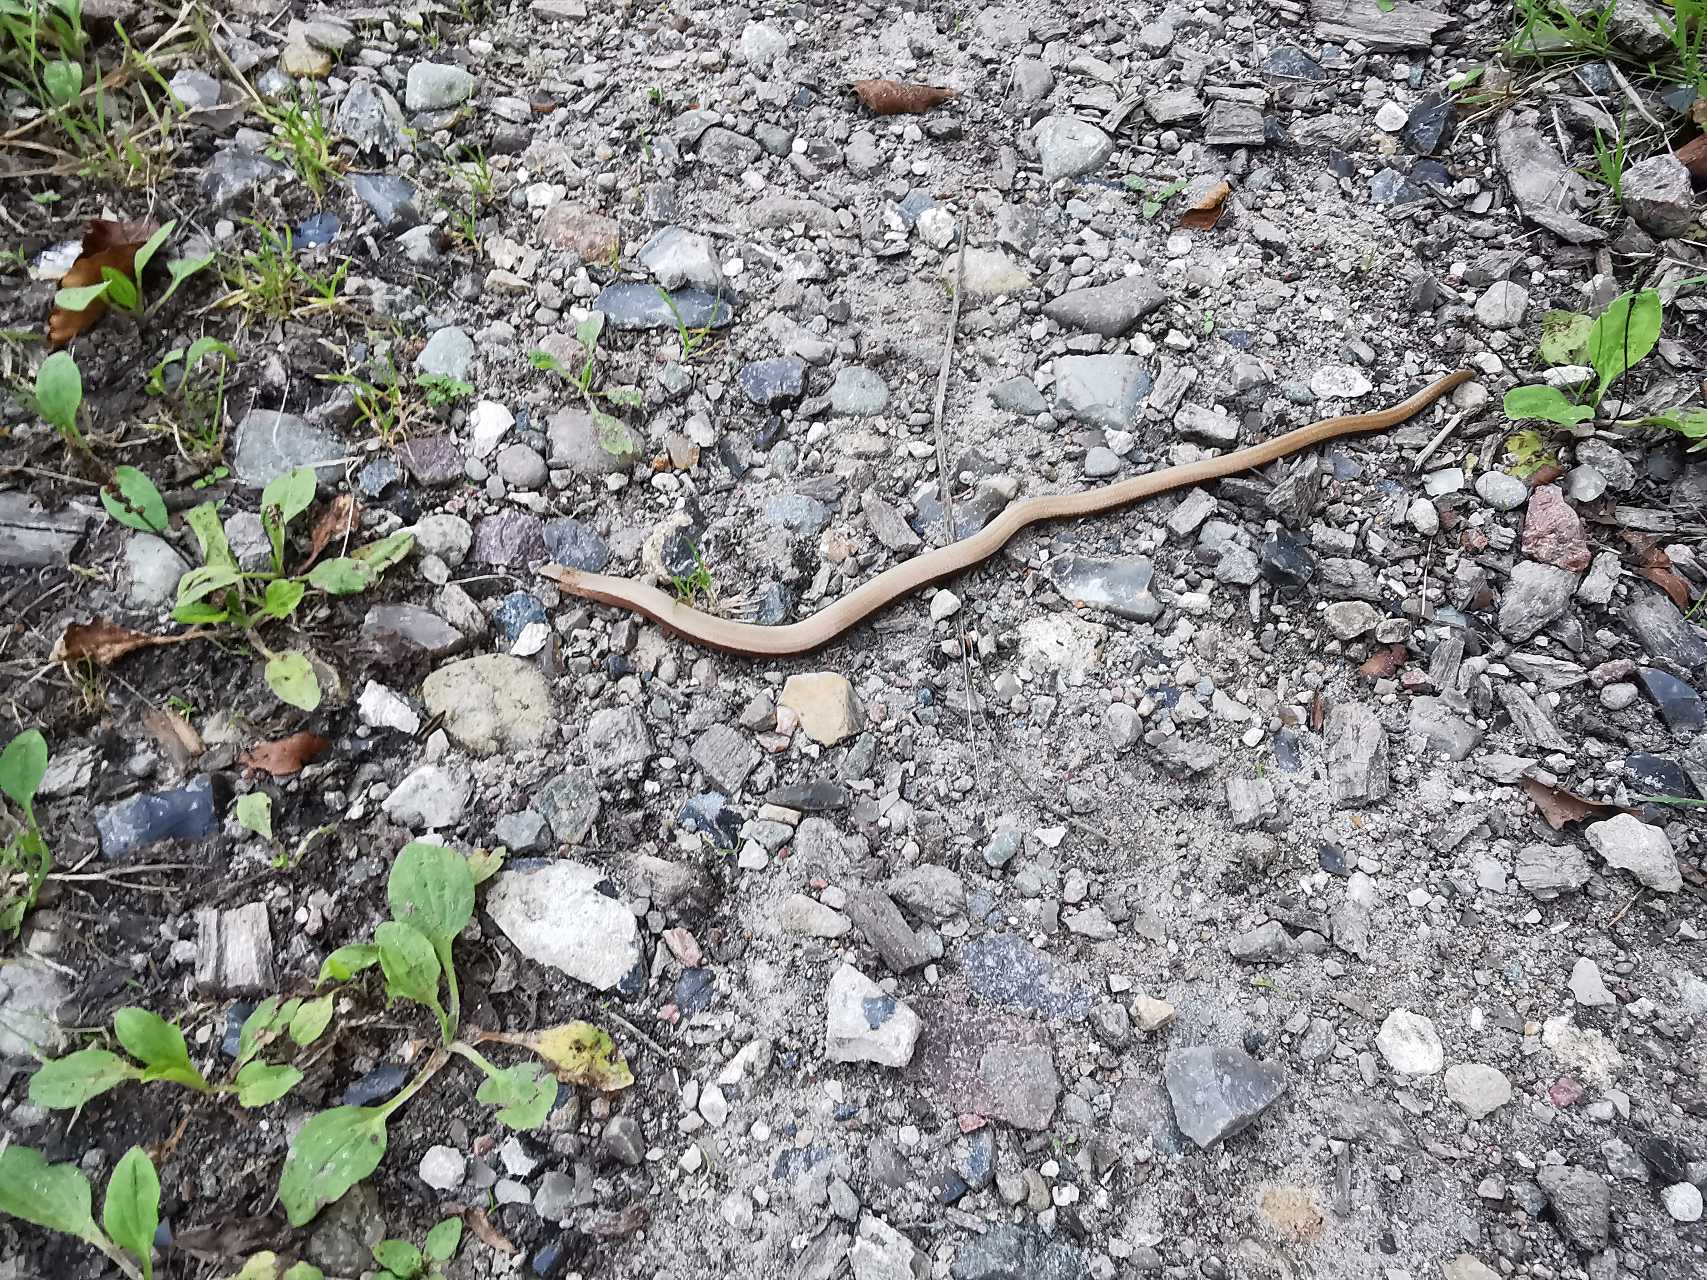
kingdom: Animalia
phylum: Chordata
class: Squamata
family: Anguidae
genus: Anguis
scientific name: Anguis fragilis
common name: Stålorm
